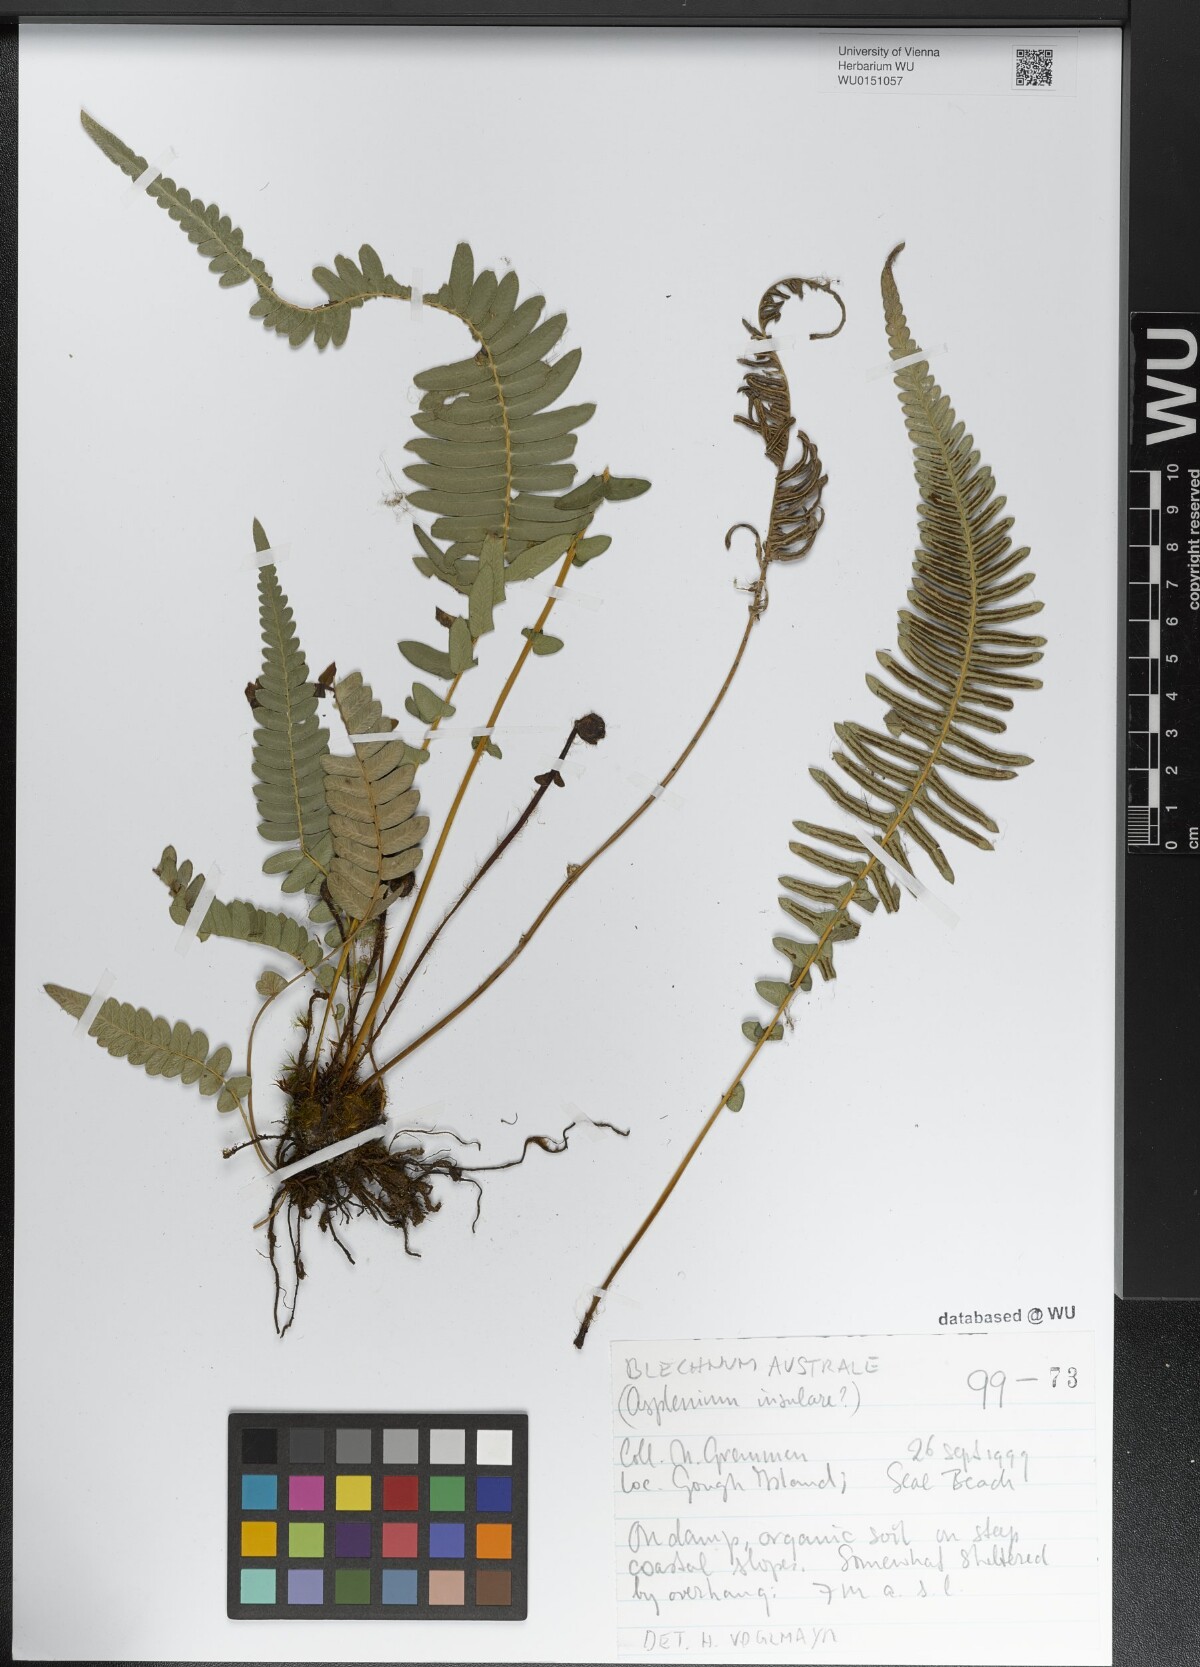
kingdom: Plantae
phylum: Tracheophyta
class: Polypodiopsida
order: Polypodiales
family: Blechnaceae
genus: Blechnum
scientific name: Blechnum australe
